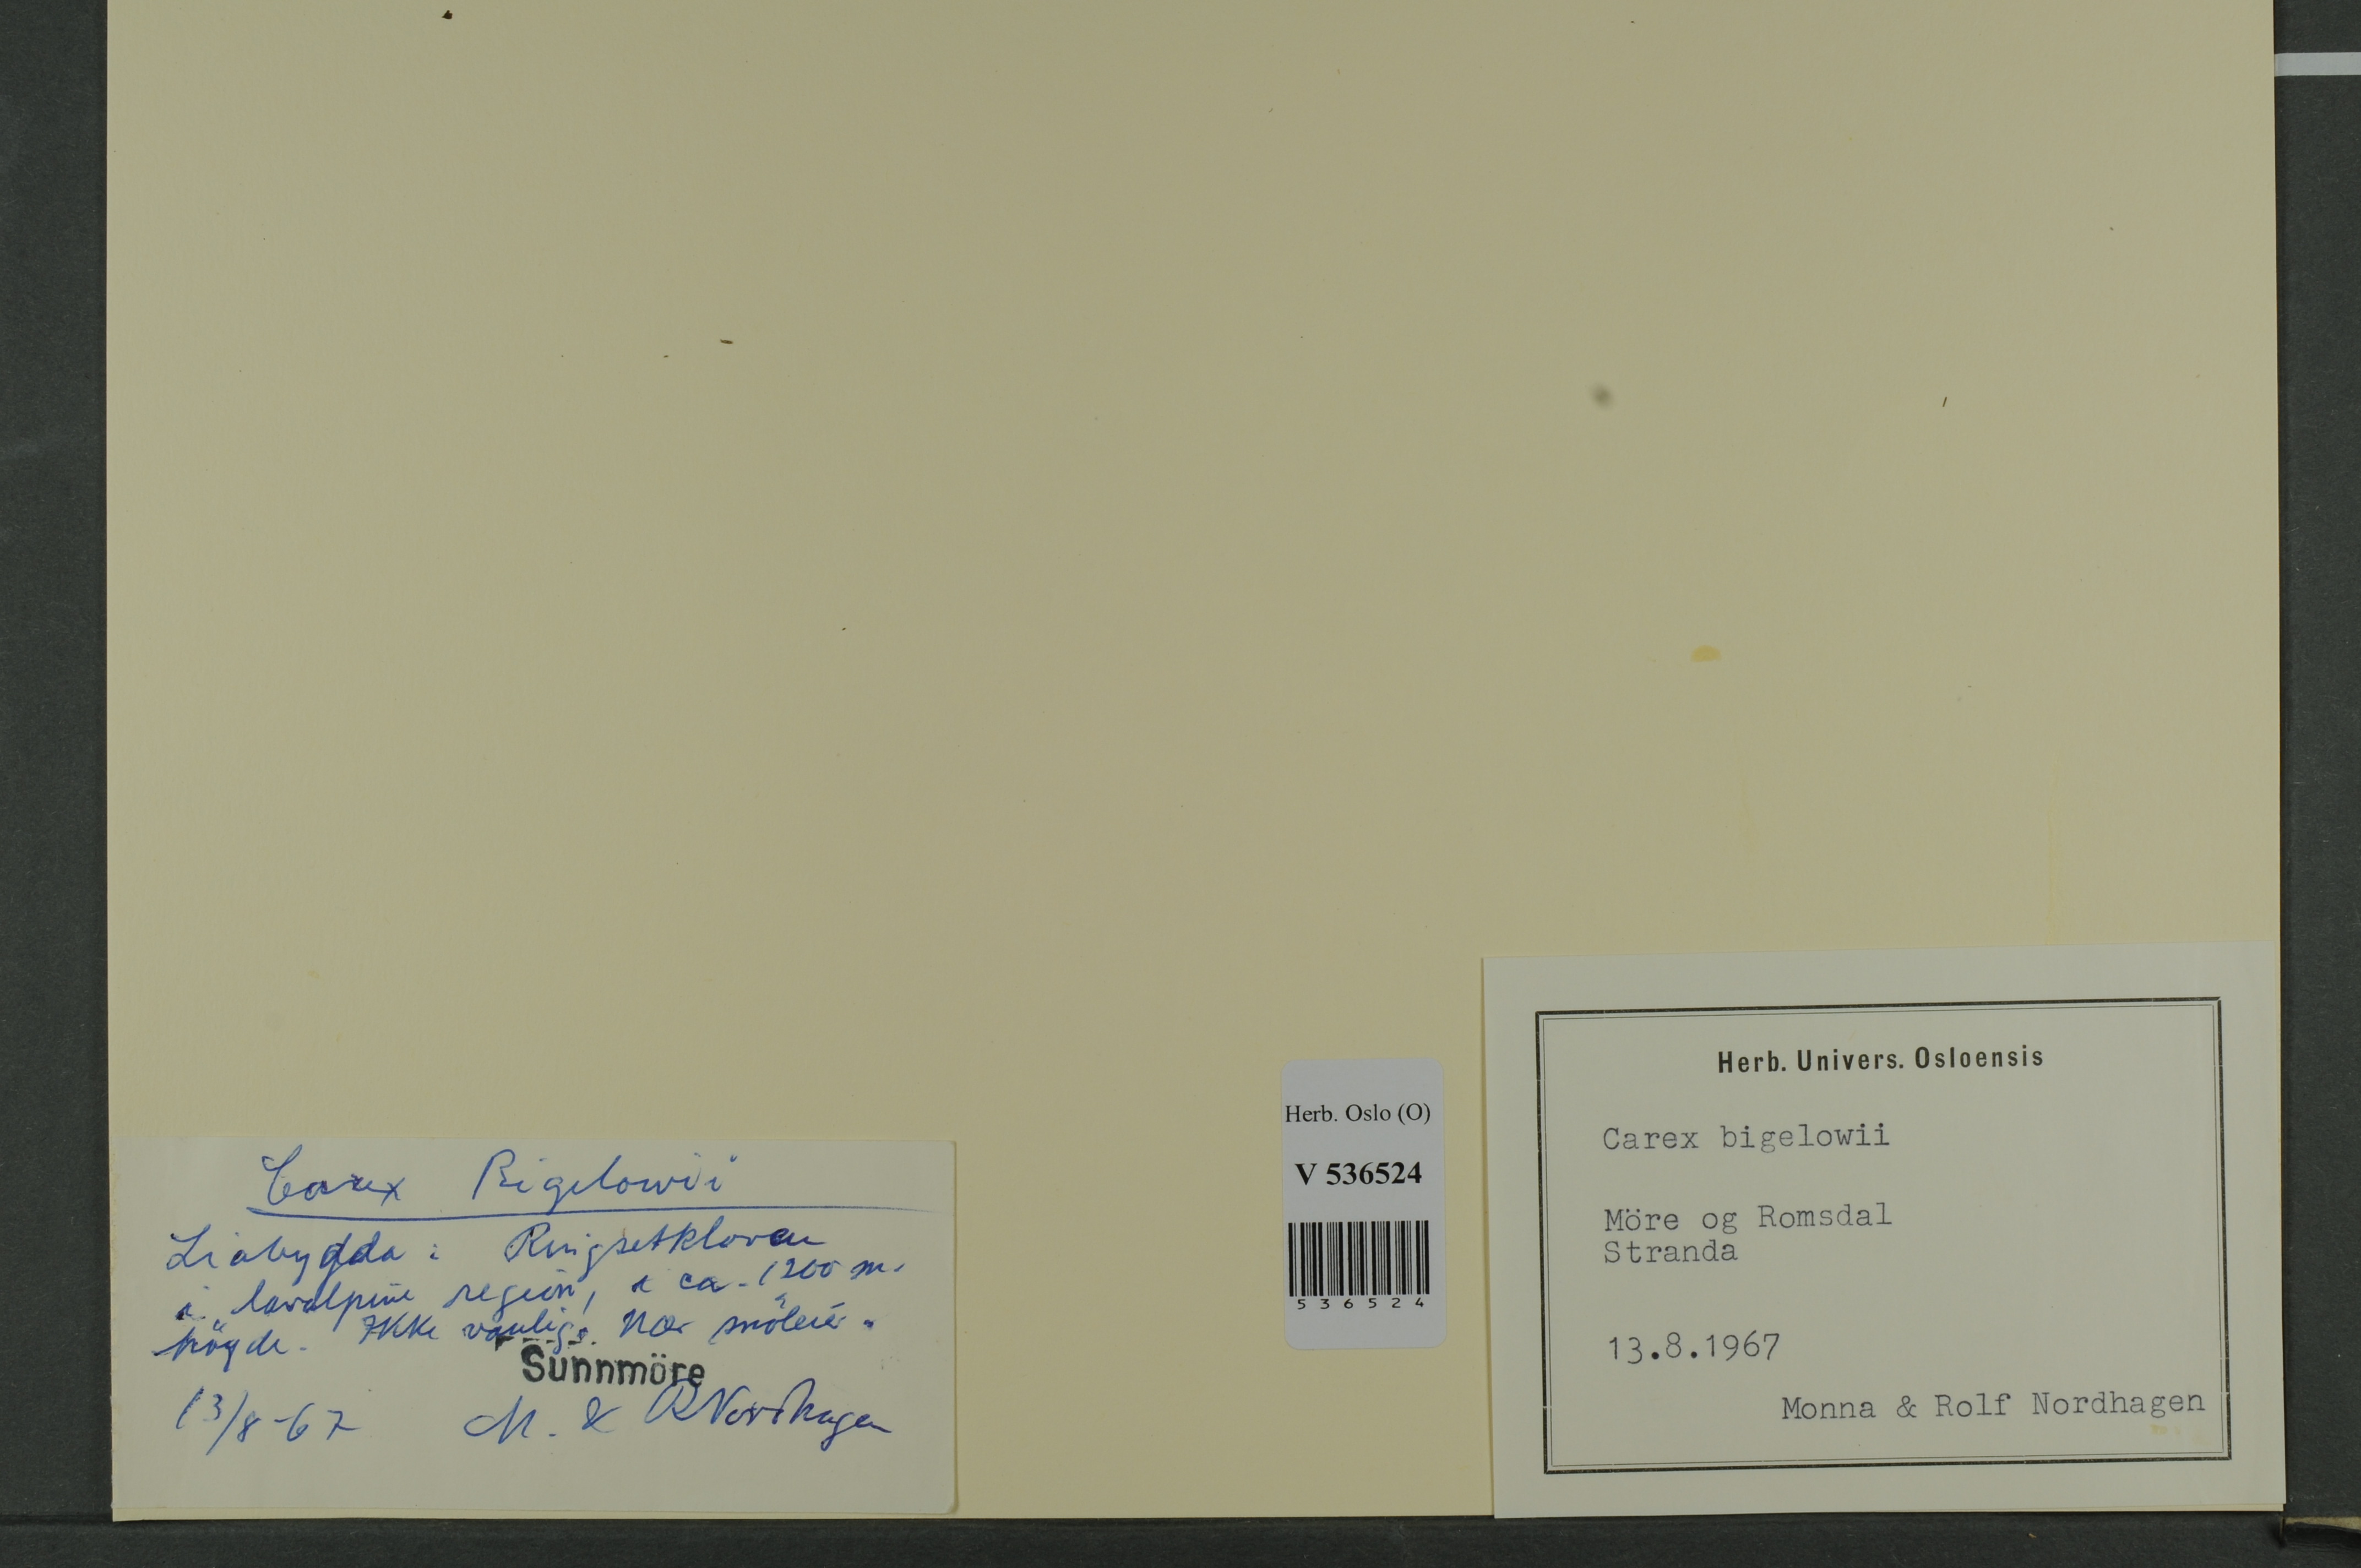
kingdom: Plantae
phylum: Tracheophyta
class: Liliopsida
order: Poales
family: Cyperaceae
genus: Carex
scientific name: Carex bigelowii
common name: Stiff sedge
